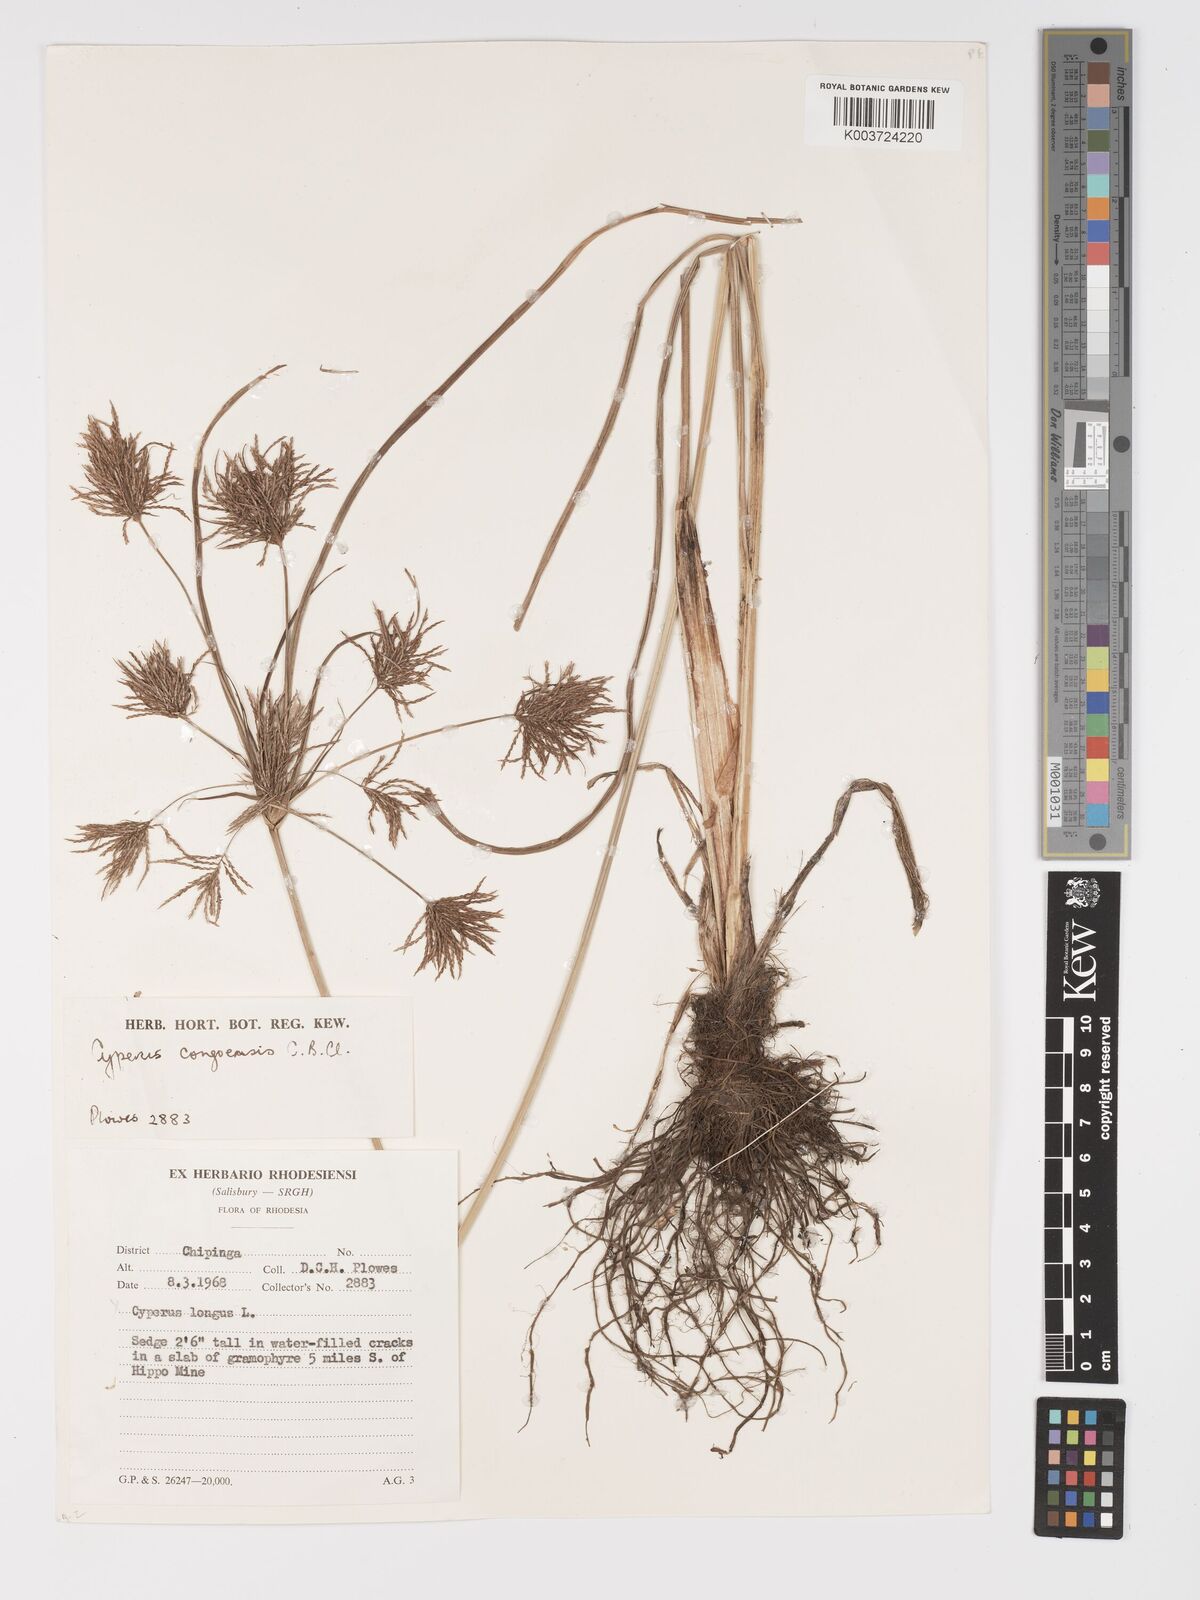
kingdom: Plantae
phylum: Tracheophyta
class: Liliopsida
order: Poales
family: Cyperaceae
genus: Cyperus
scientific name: Cyperus congensis
